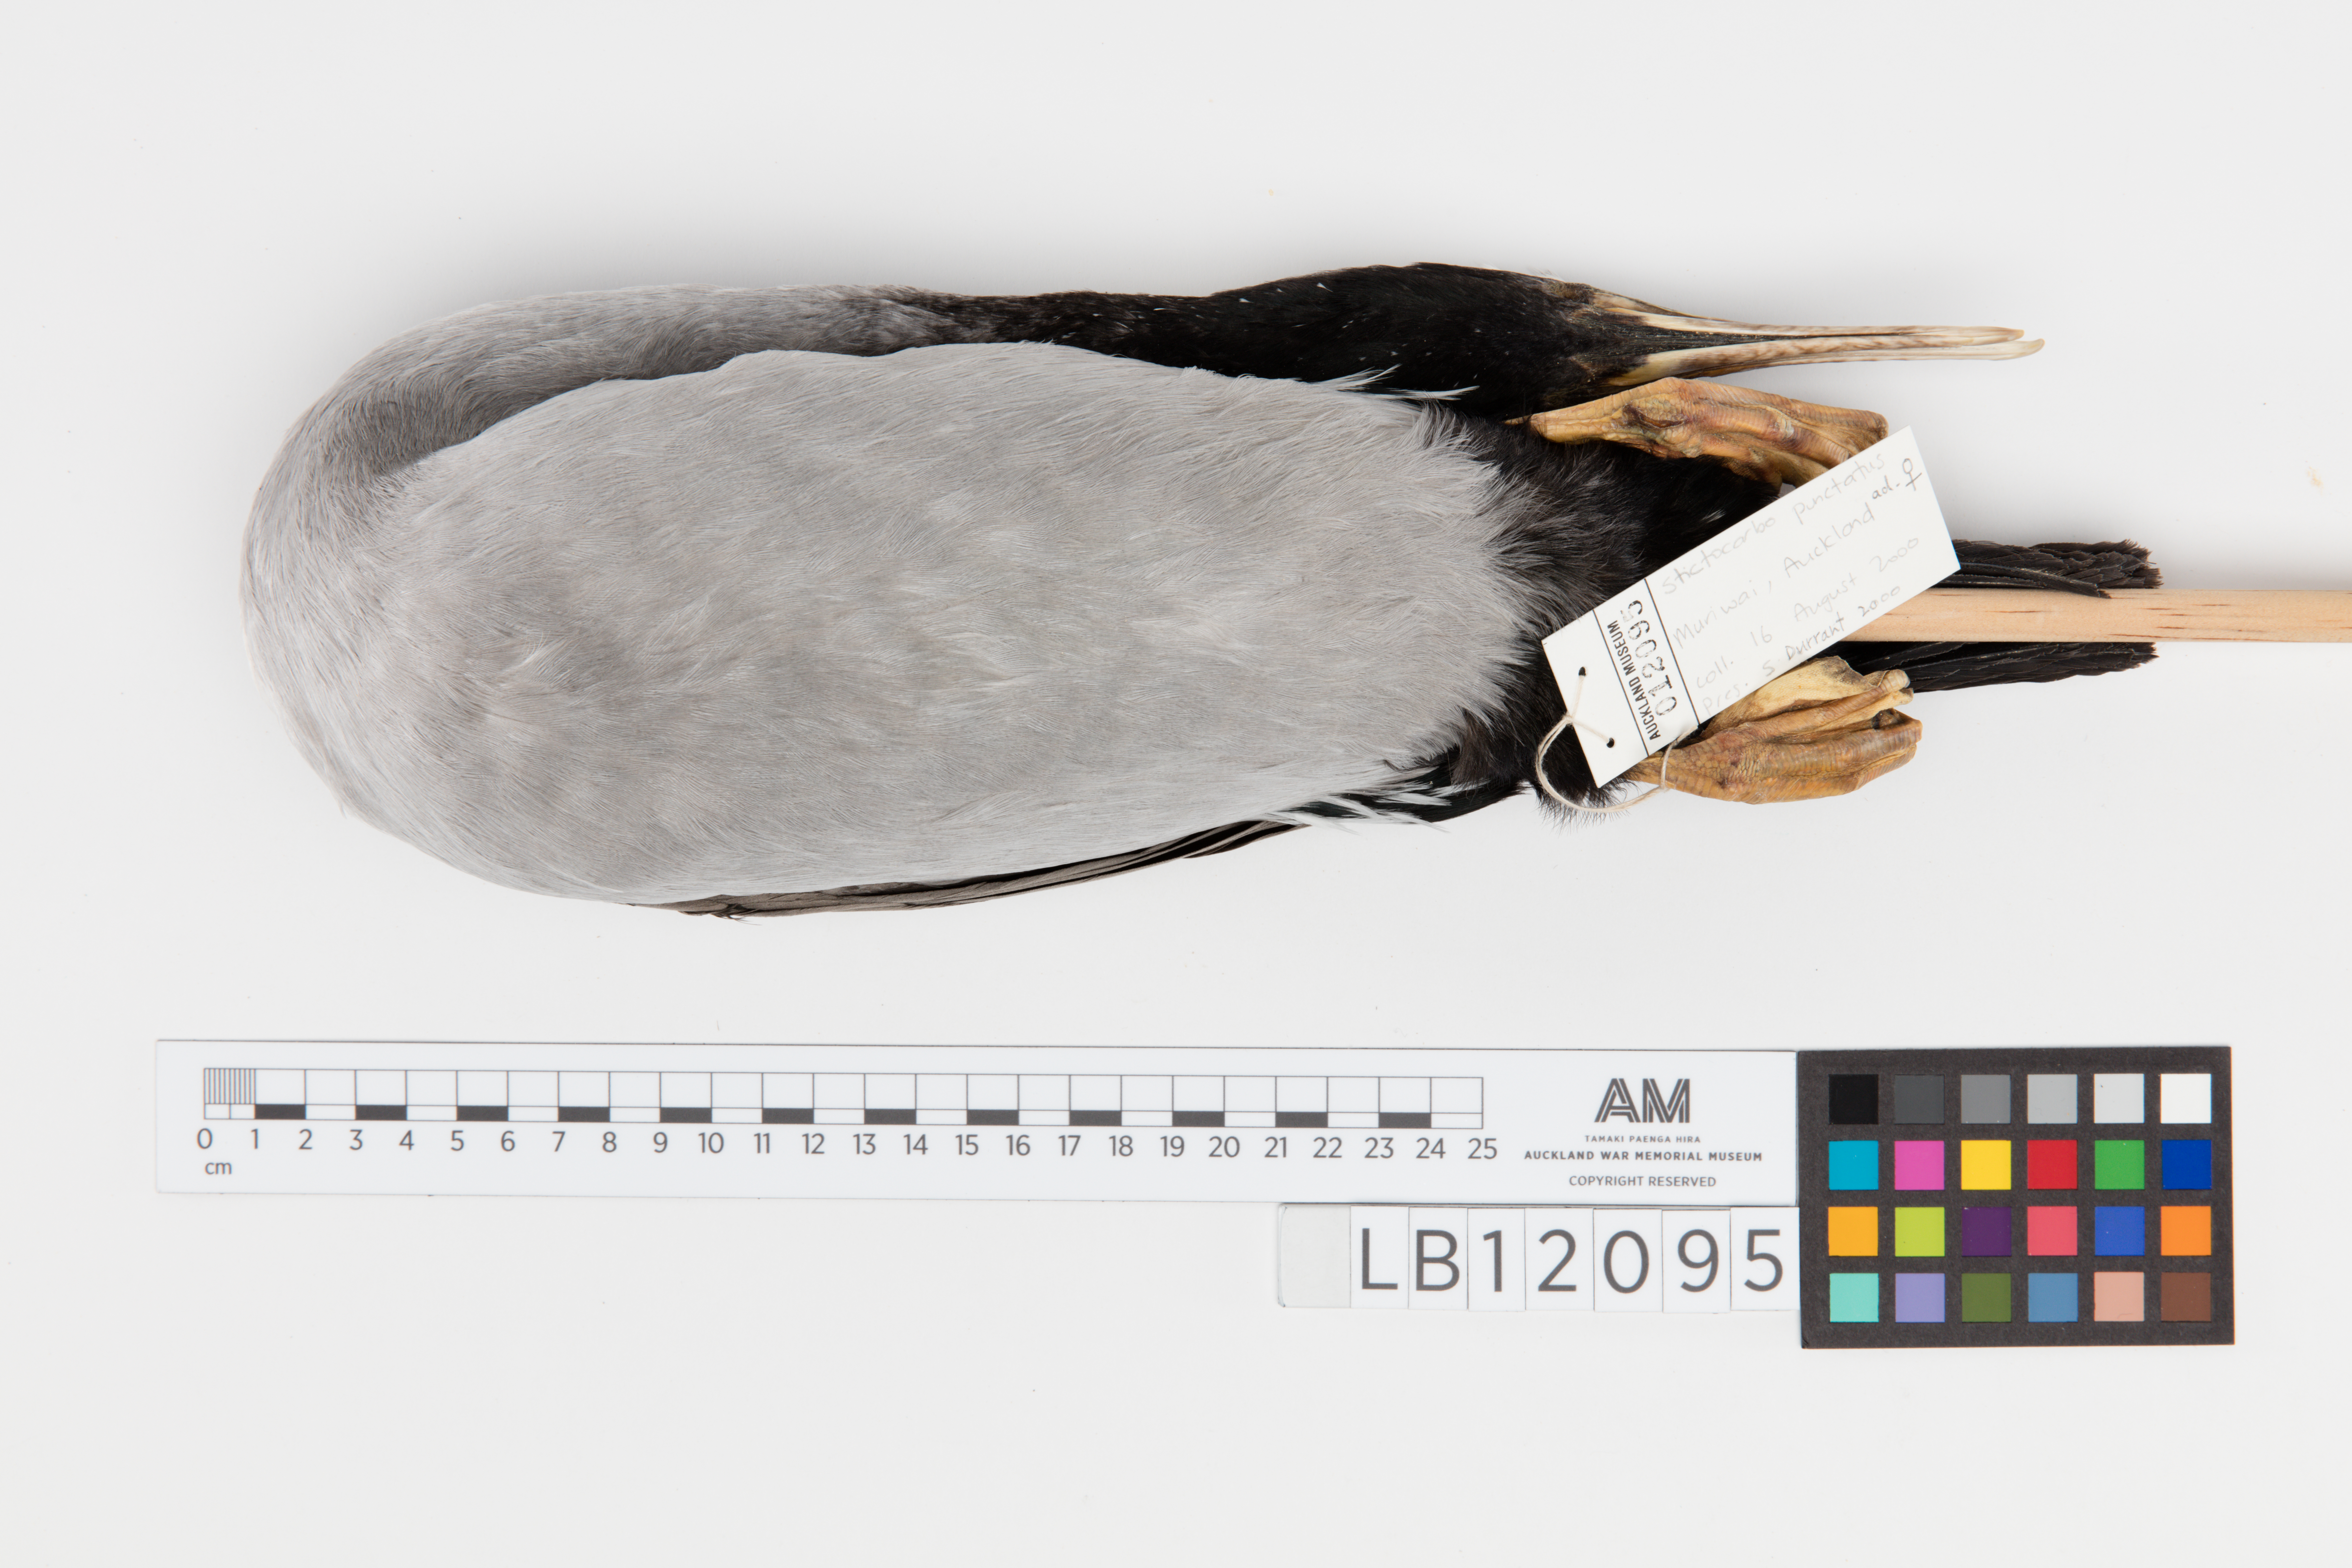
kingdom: Animalia
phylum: Chordata
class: Aves
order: Suliformes
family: Phalacrocoracidae
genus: Phalacrocorax
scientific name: Phalacrocorax punctatus
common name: Spotted shag
